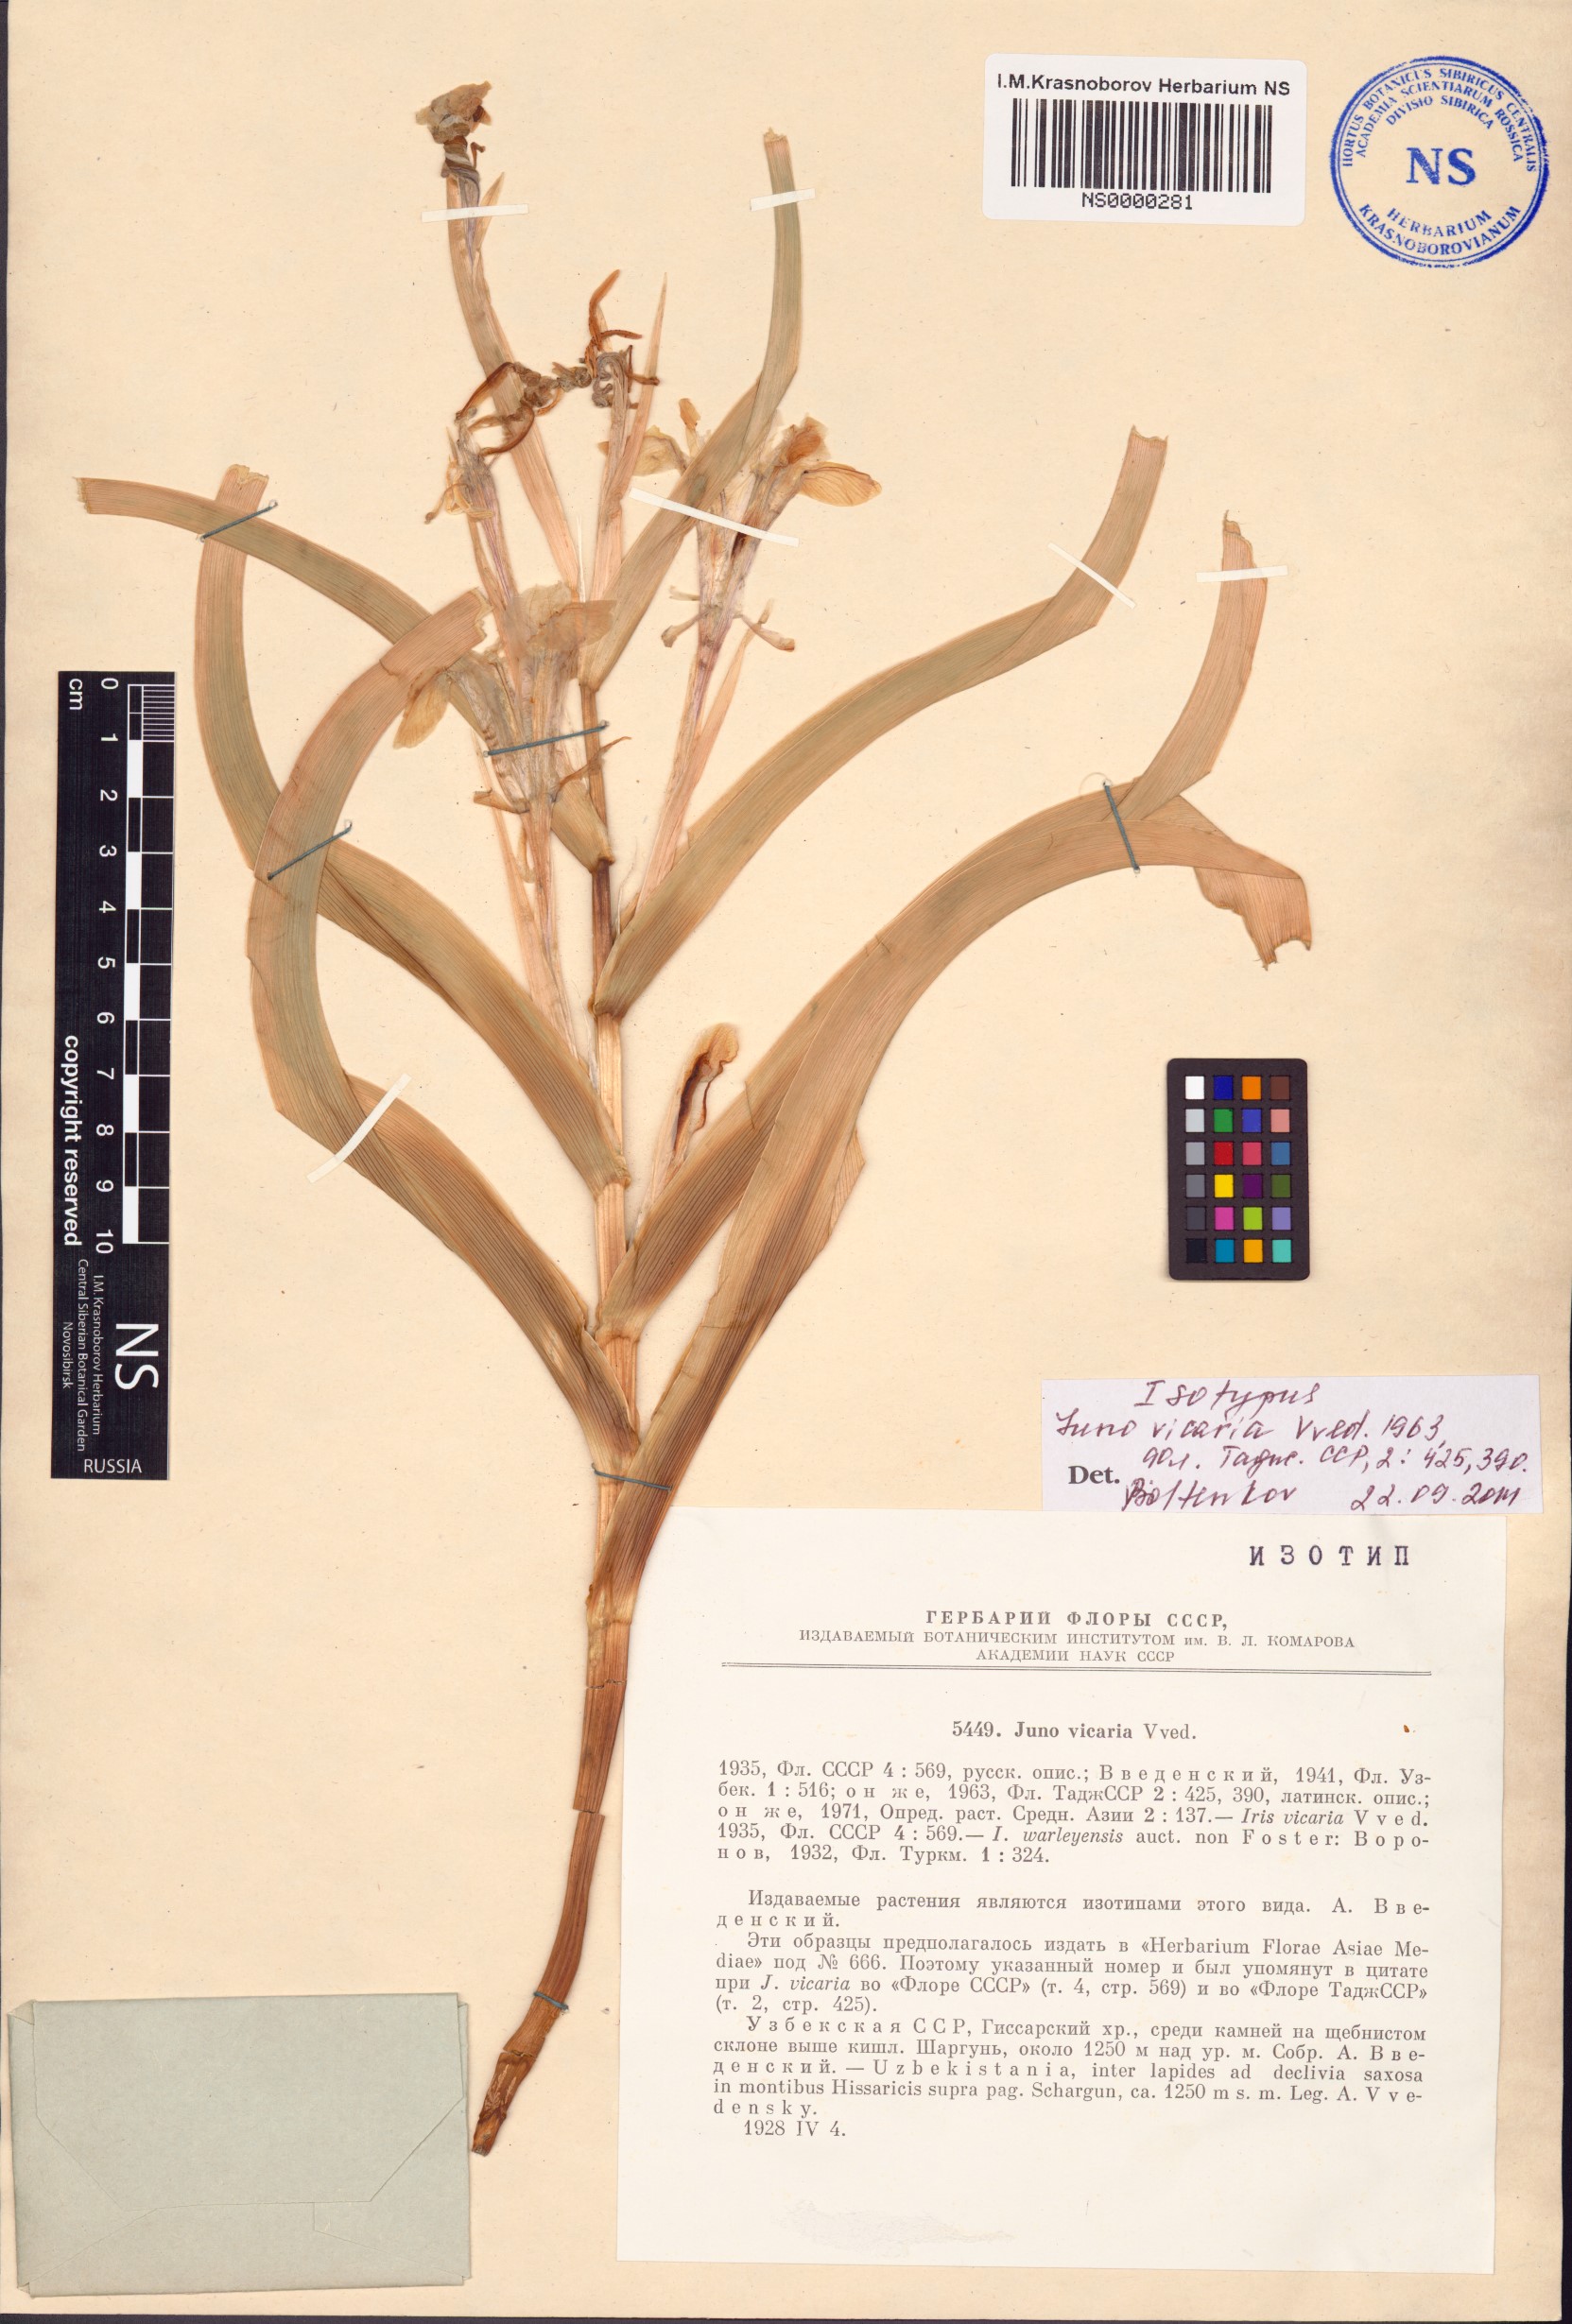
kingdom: Plantae
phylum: Tracheophyta
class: Liliopsida
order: Asparagales
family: Iridaceae
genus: Iris
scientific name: Iris vicaria
